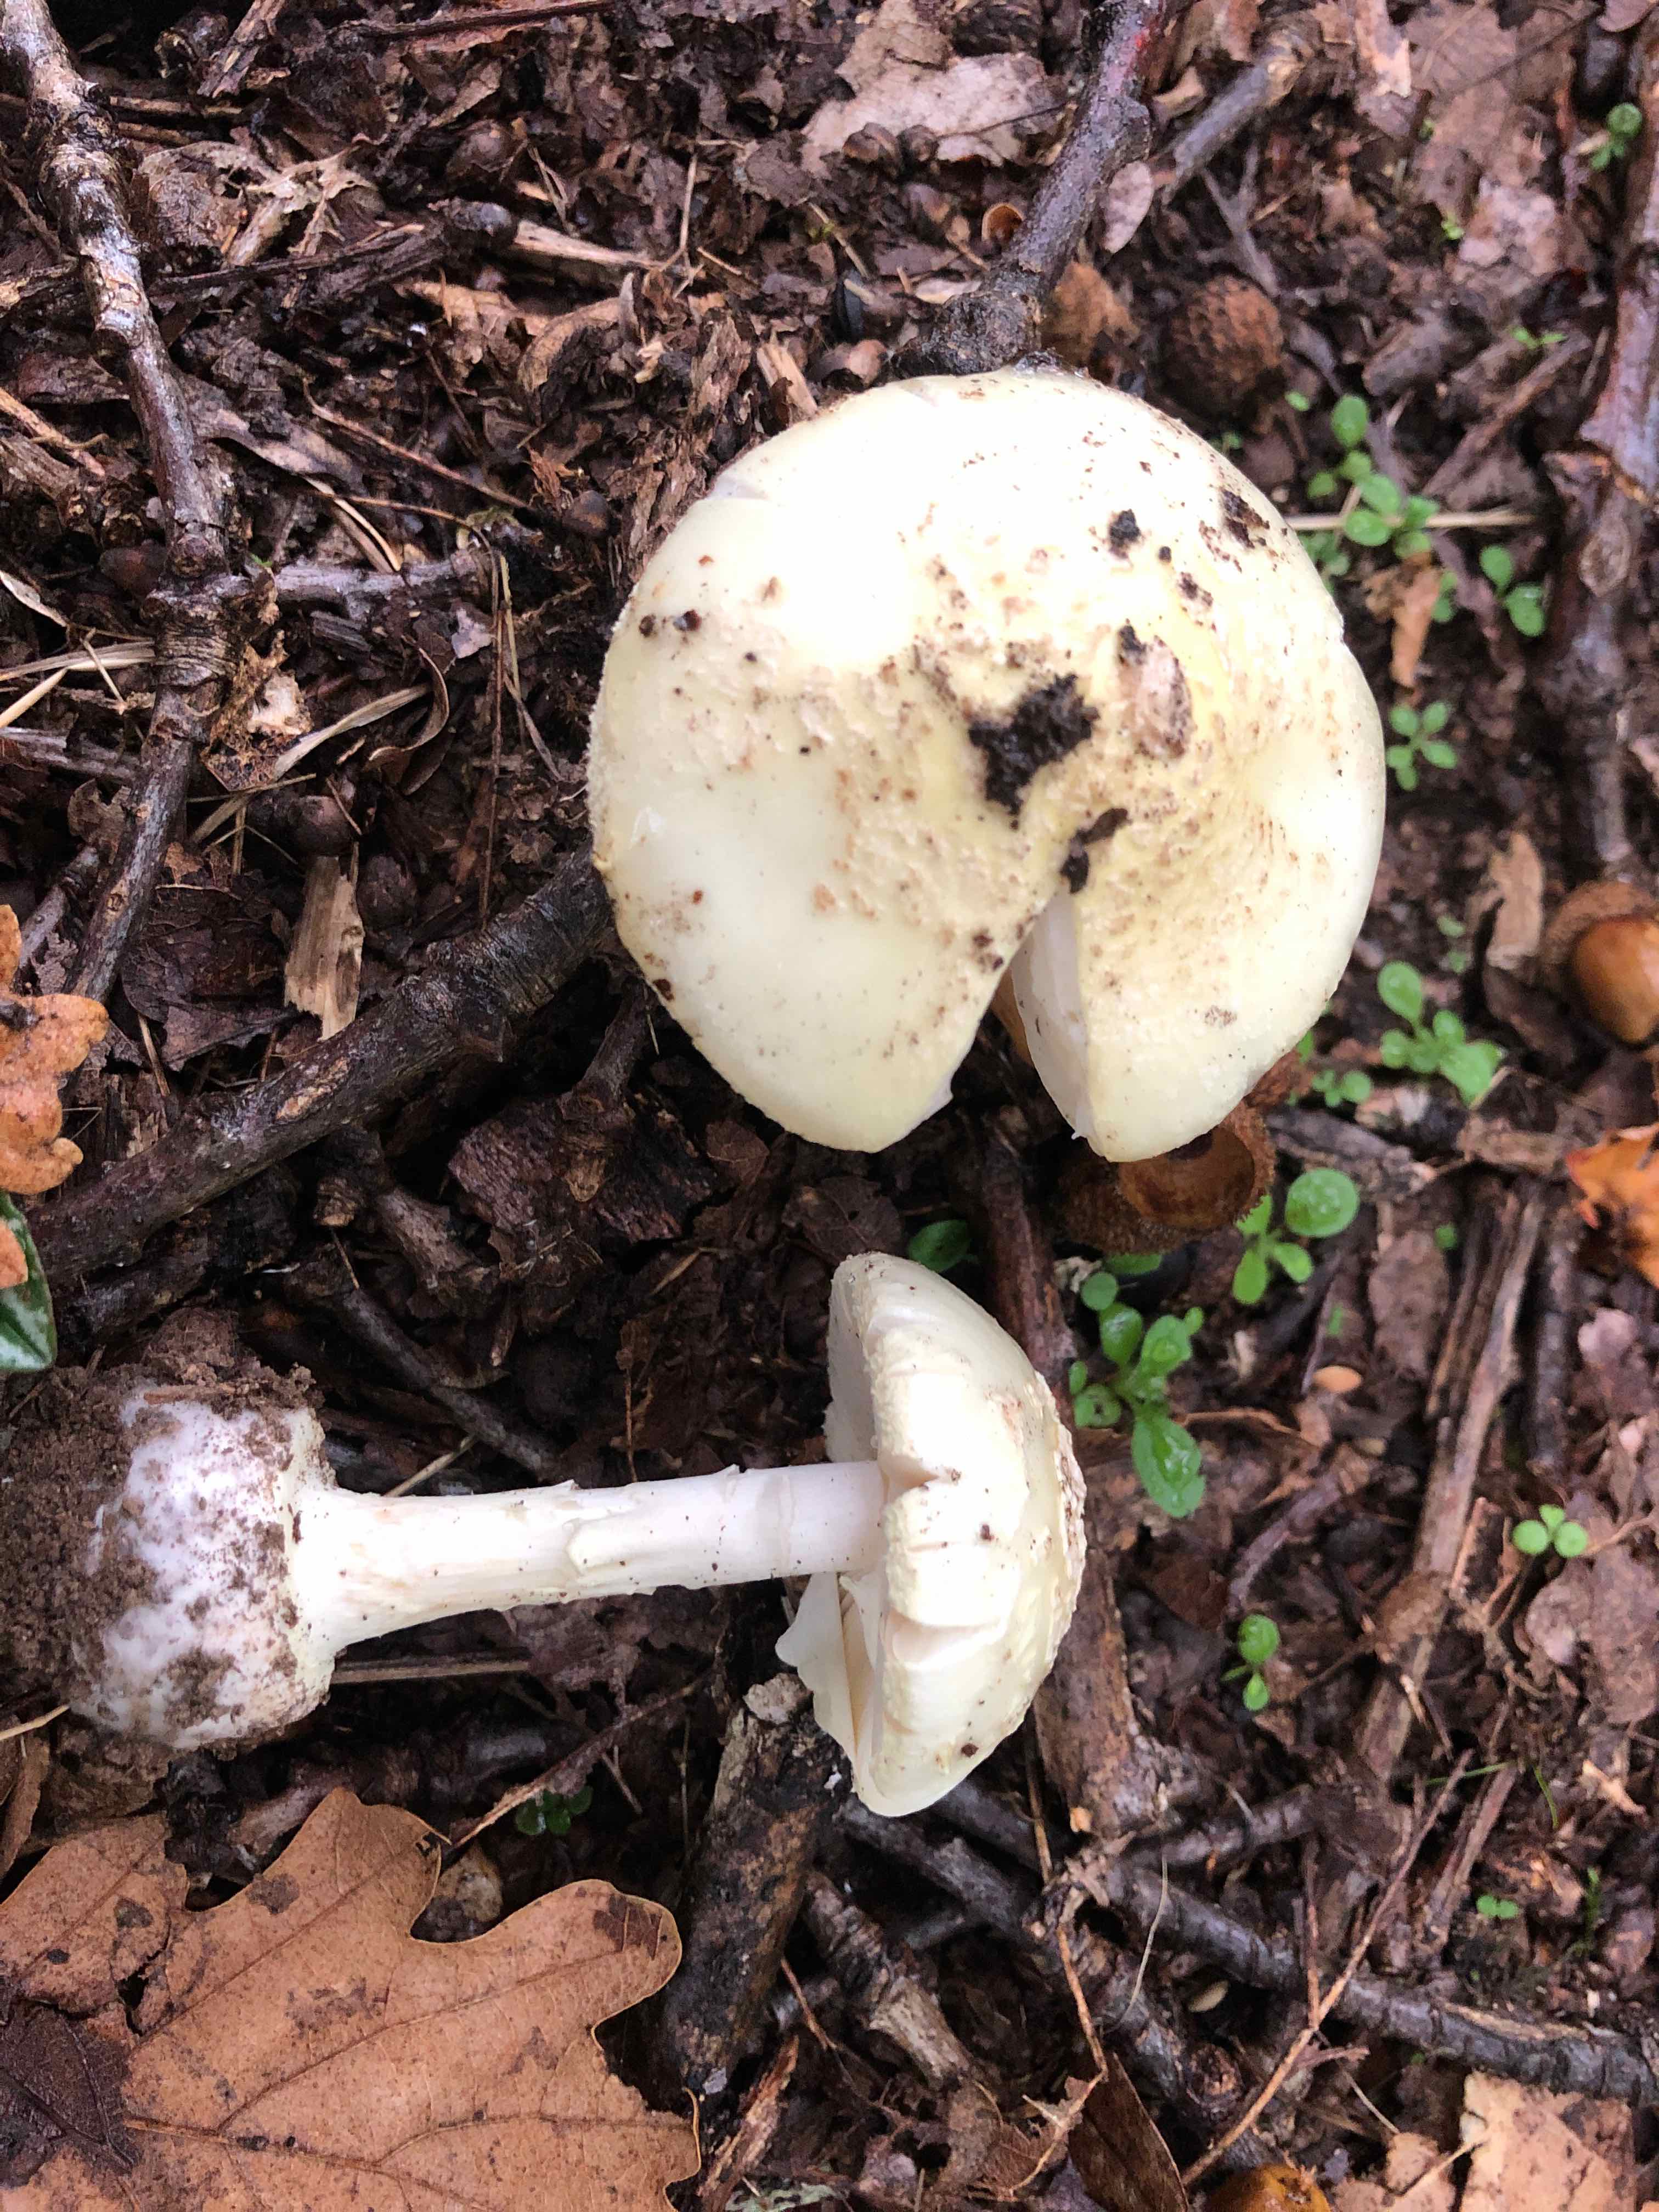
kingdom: Fungi
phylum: Basidiomycota
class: Agaricomycetes
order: Agaricales
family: Amanitaceae
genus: Amanita
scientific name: Amanita citrina
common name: kugleknoldet fluesvamp
